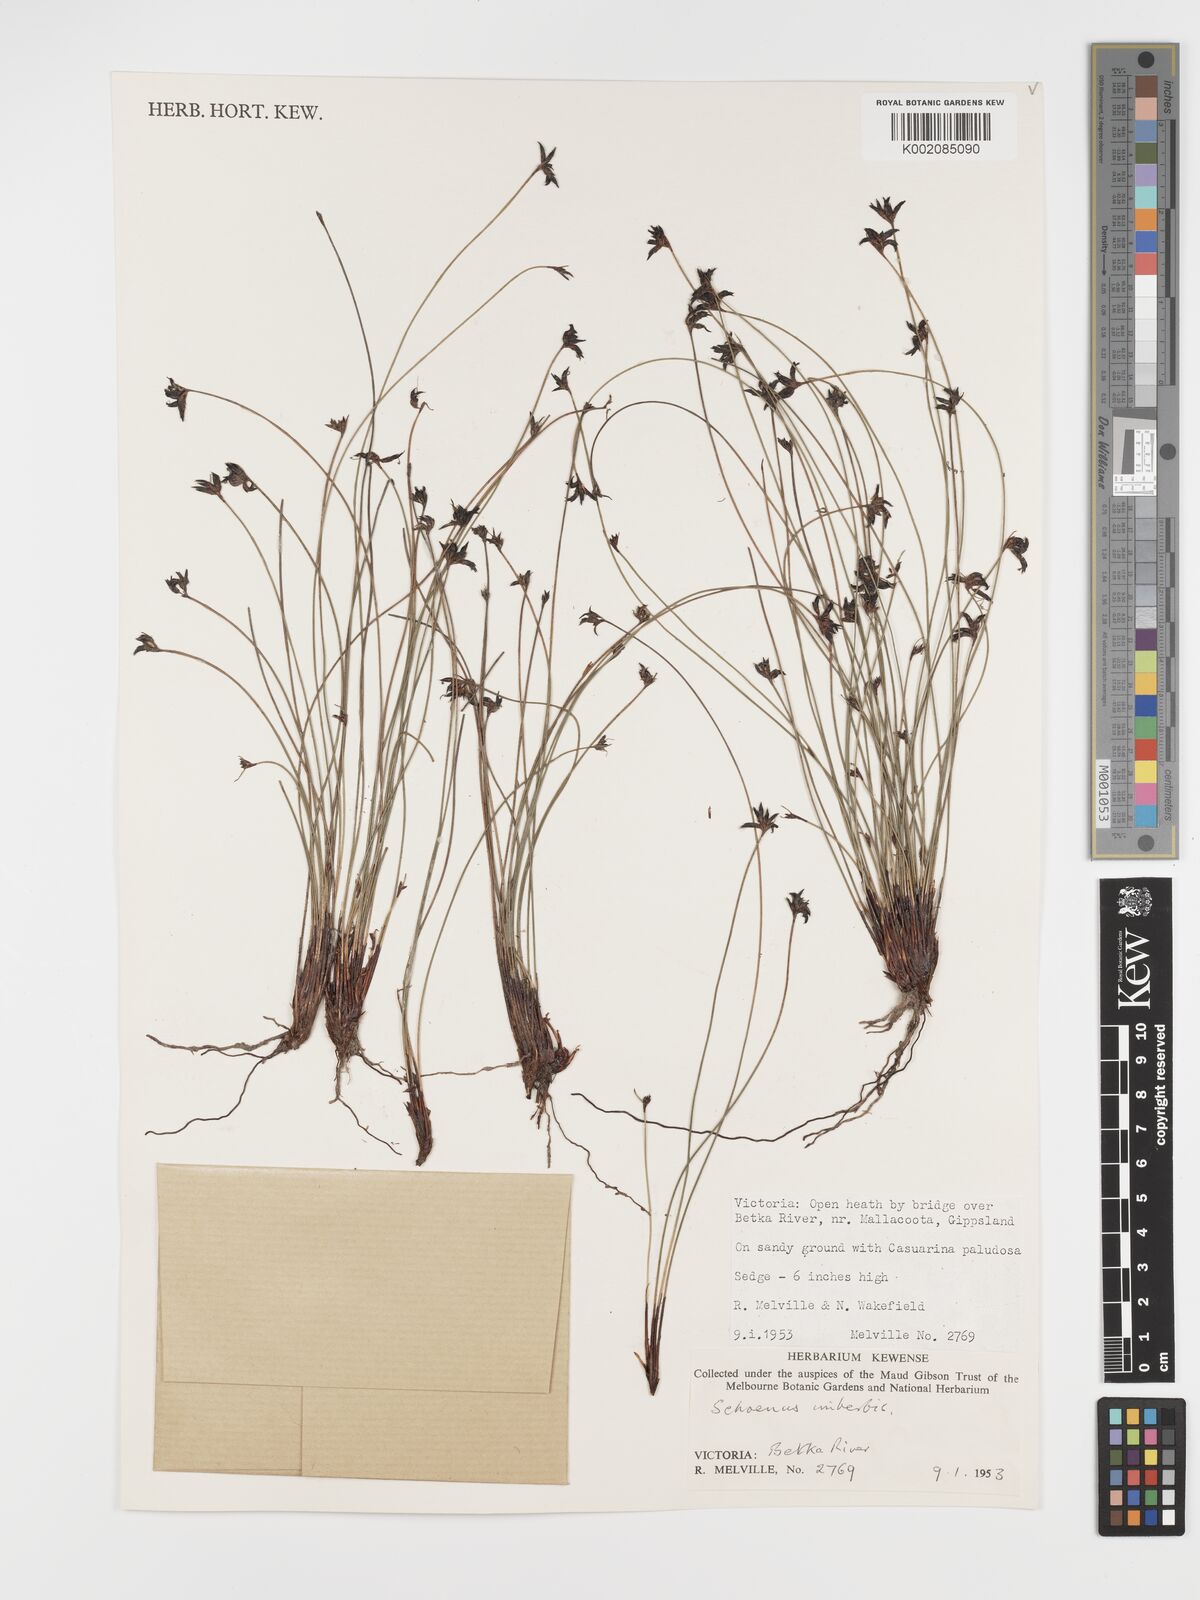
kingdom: Plantae
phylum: Tracheophyta
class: Liliopsida
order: Poales
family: Cyperaceae
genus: Schoenus
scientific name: Schoenus imberbis
